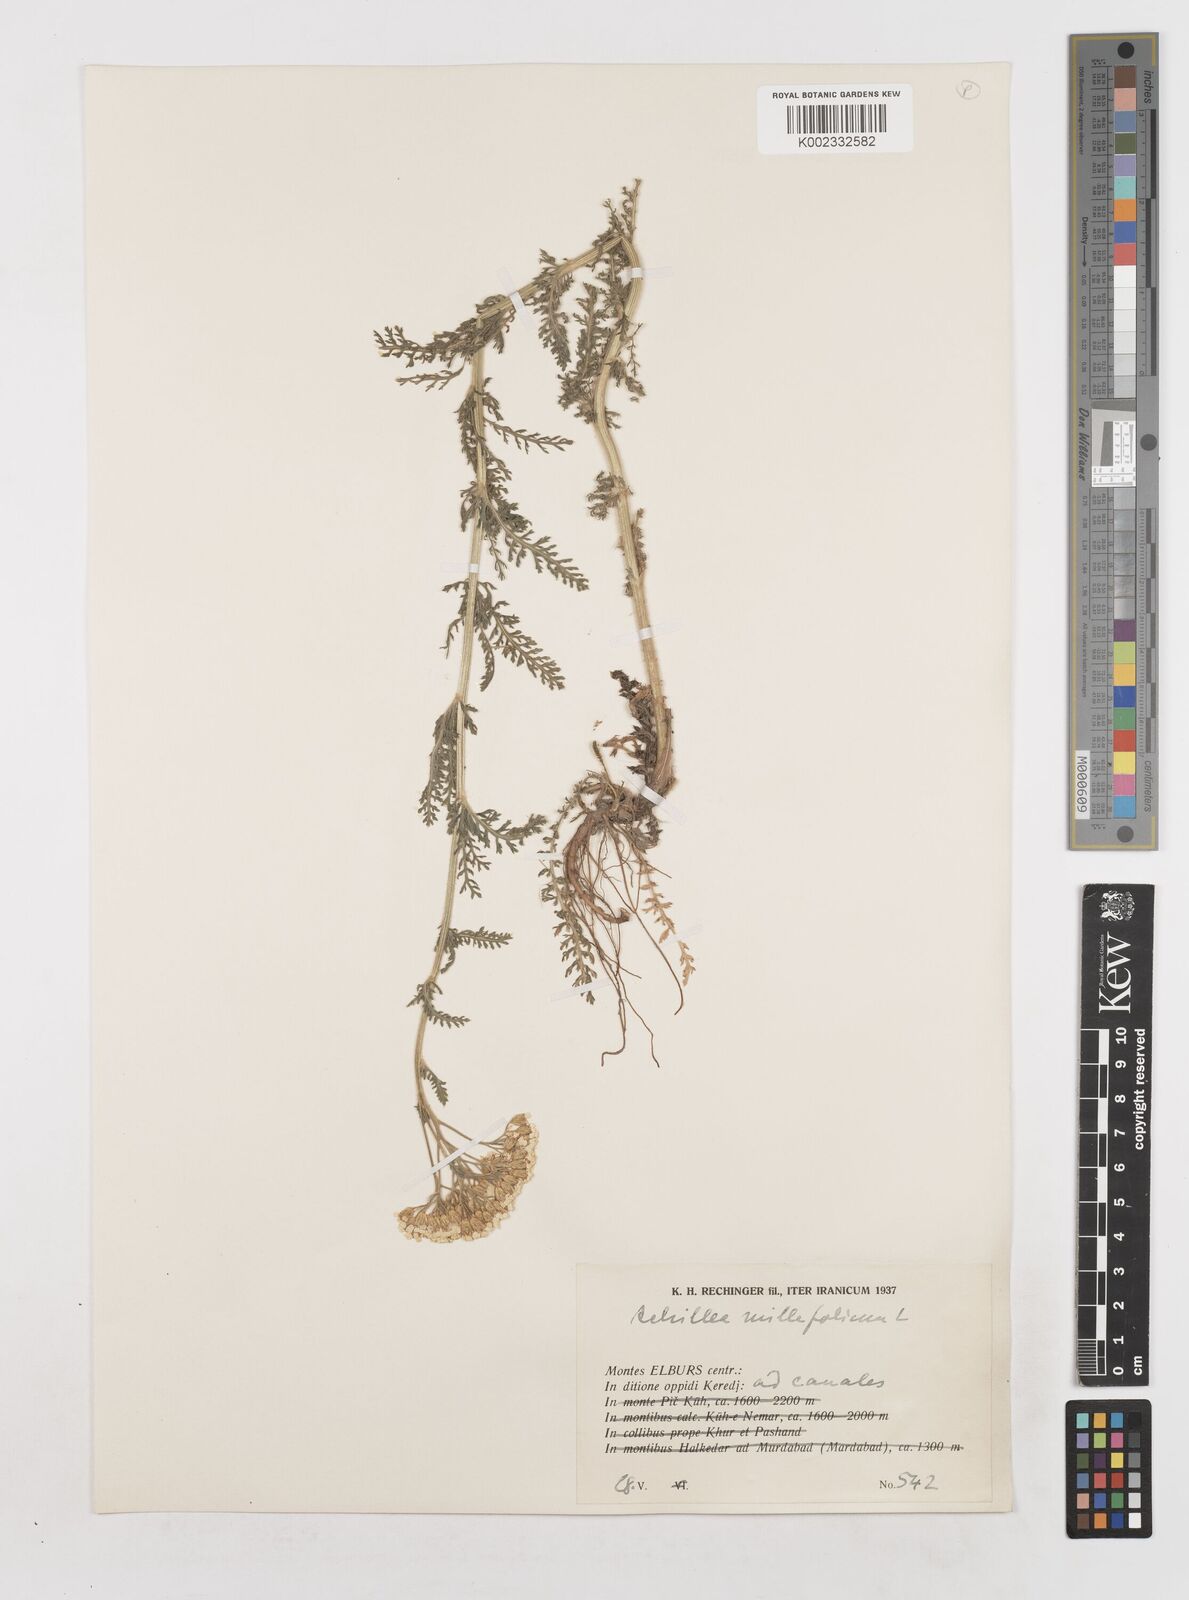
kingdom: Plantae
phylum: Tracheophyta
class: Magnoliopsida
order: Asterales
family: Asteraceae
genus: Achillea
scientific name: Achillea millefolium
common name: Yarrow
